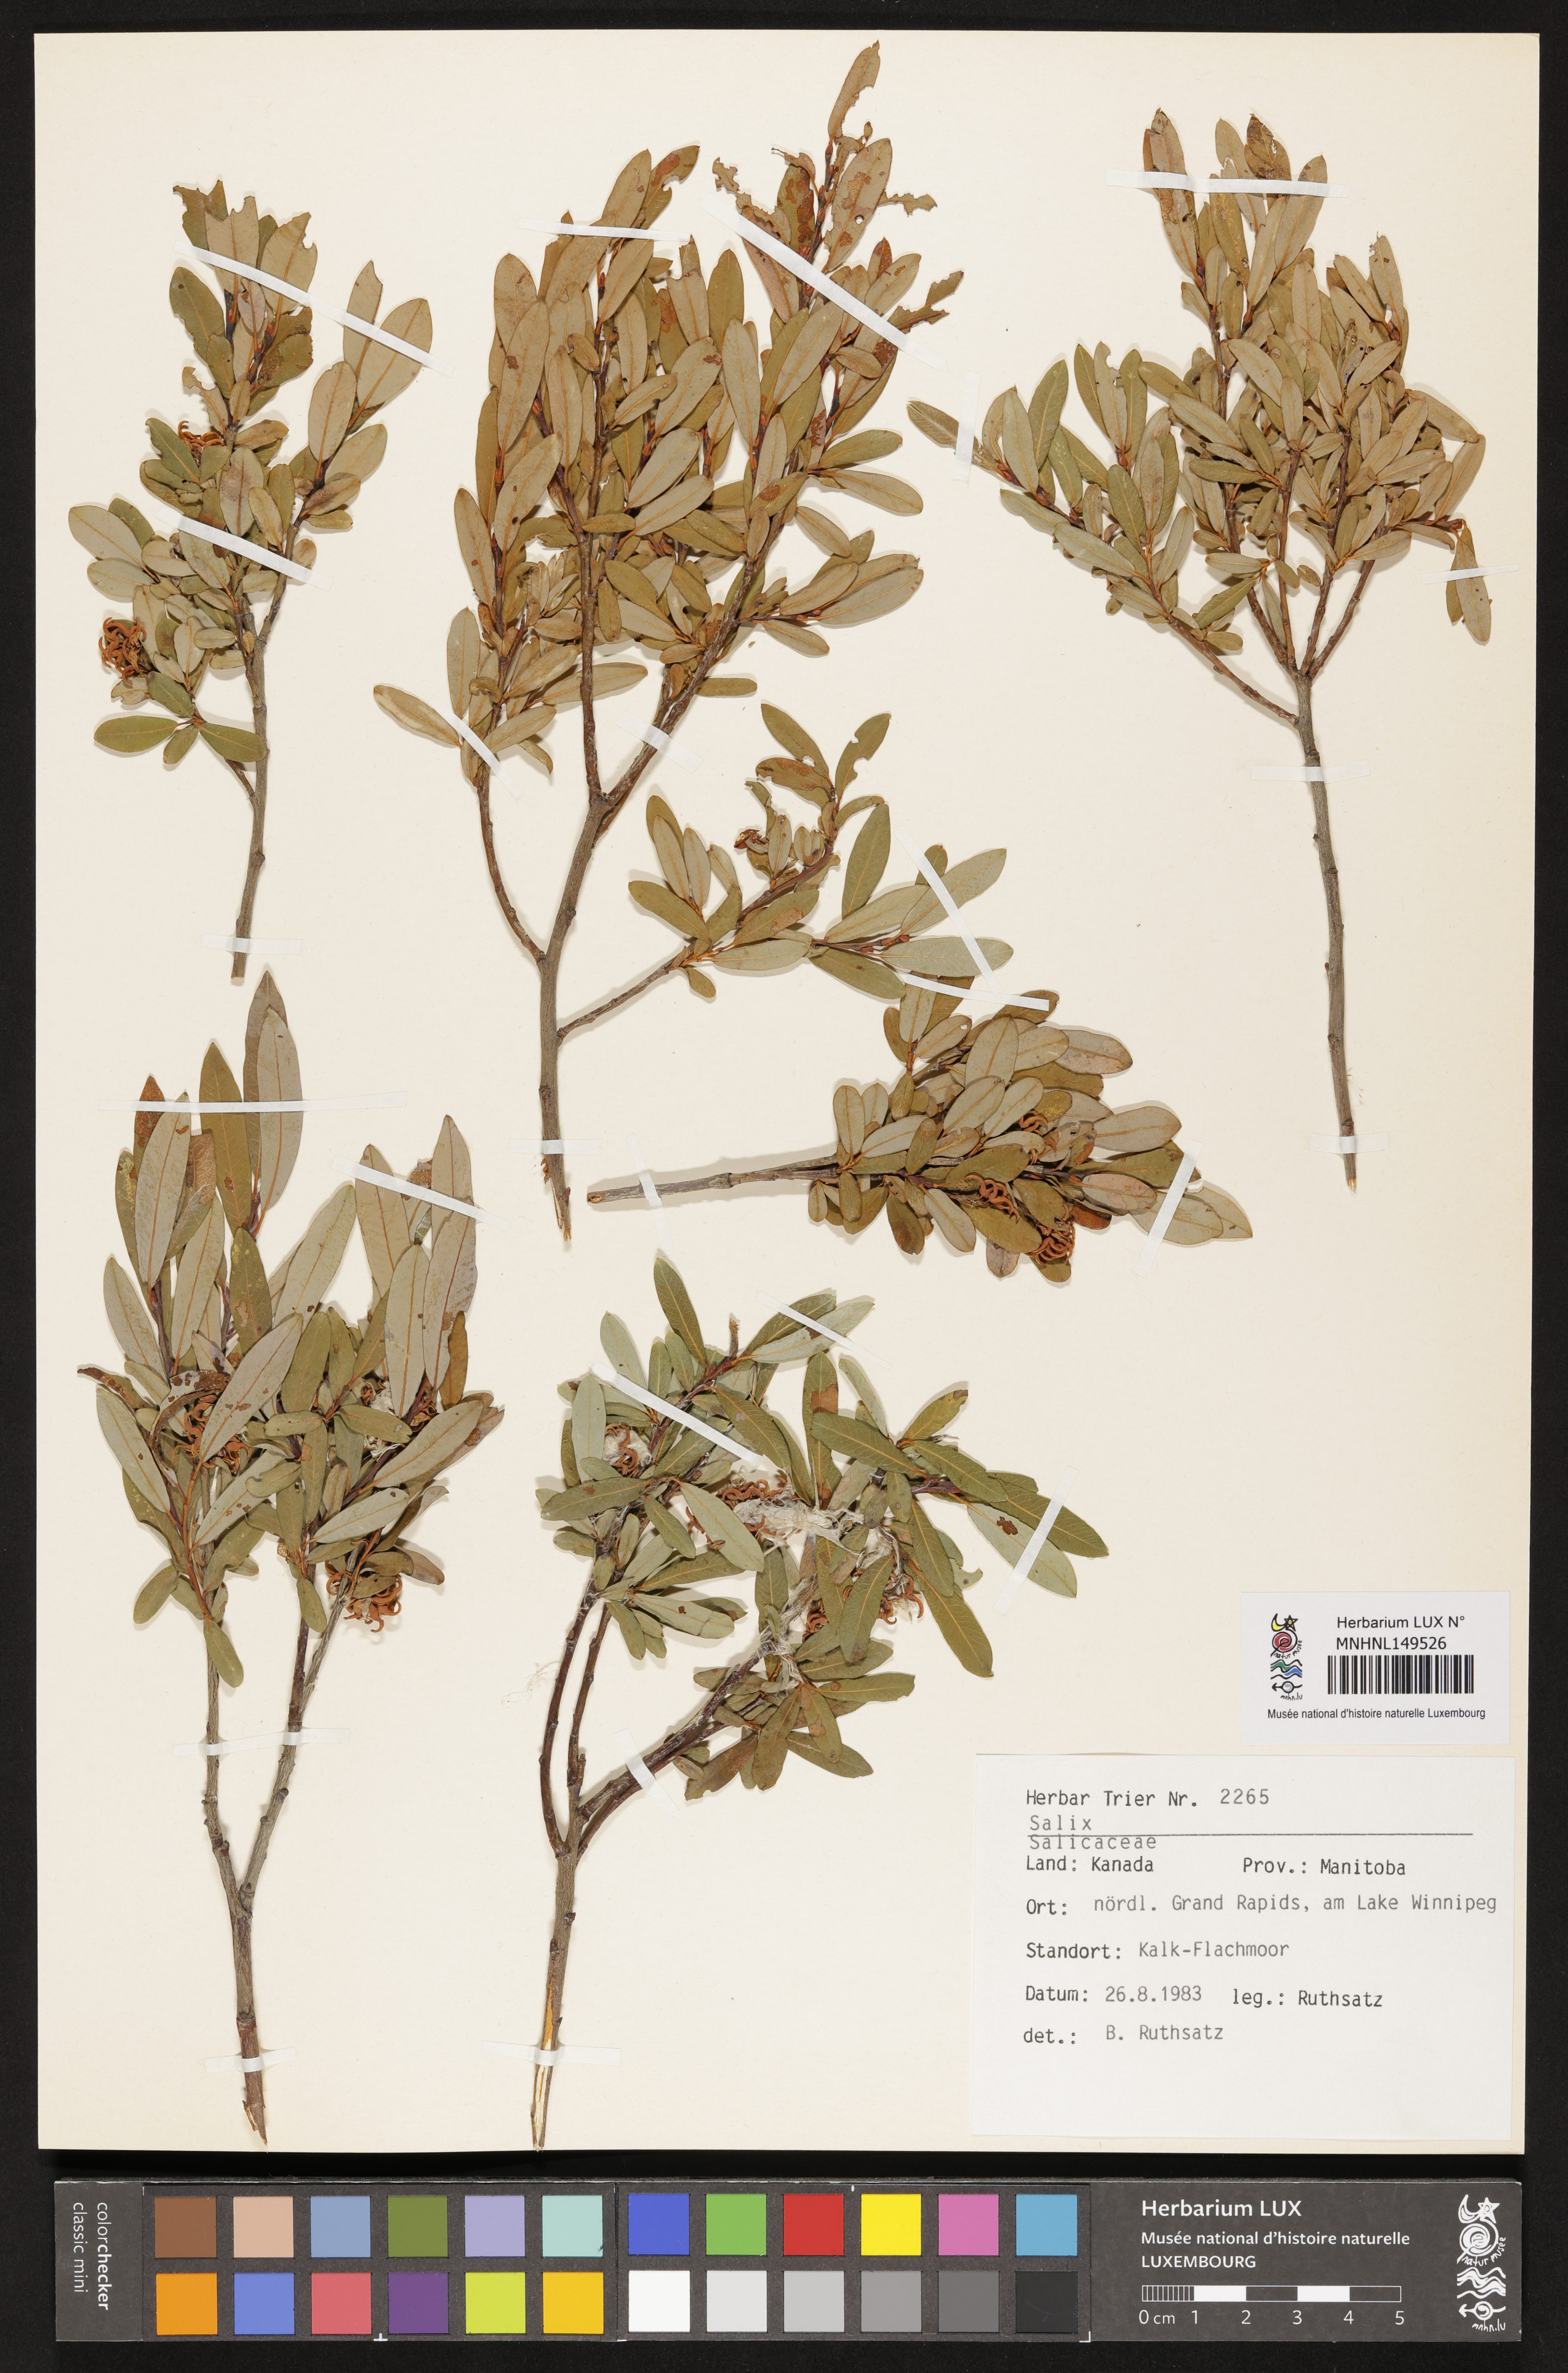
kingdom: Plantae
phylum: Tracheophyta
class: Magnoliopsida
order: Malpighiales
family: Salicaceae
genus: Salix
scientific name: Salix
